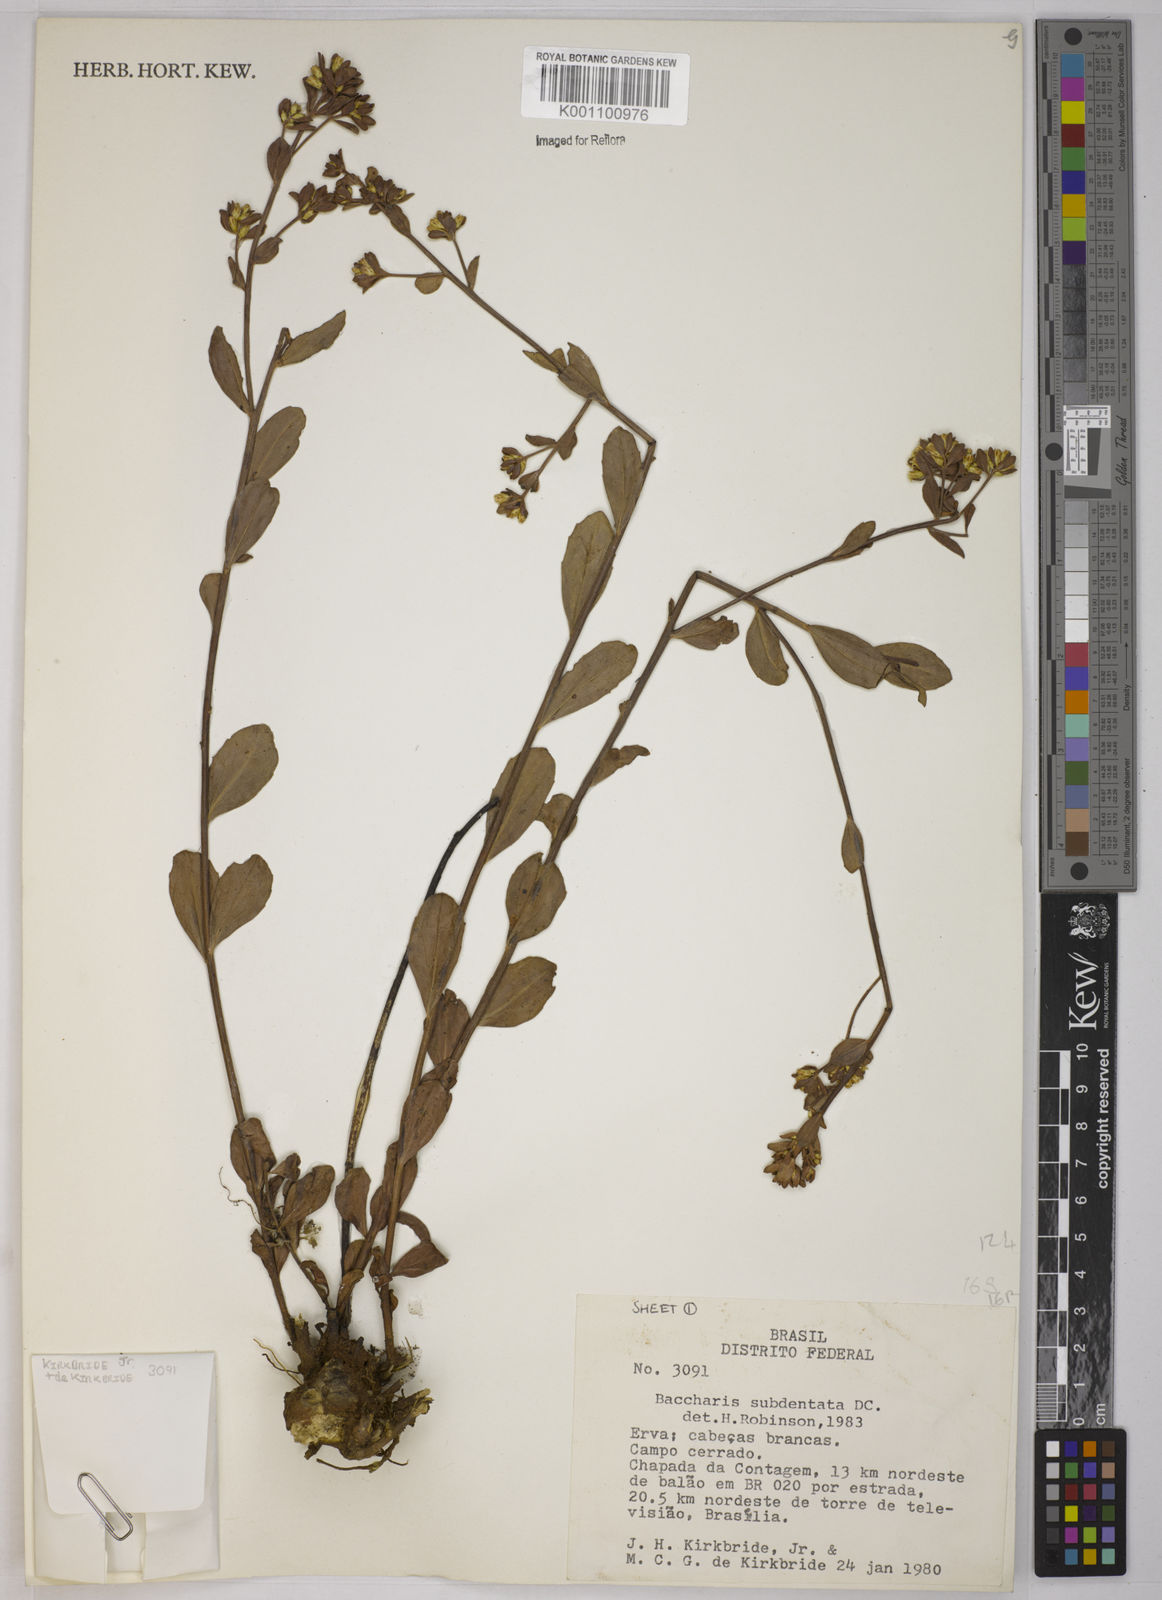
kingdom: Plantae
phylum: Tracheophyta
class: Magnoliopsida
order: Asterales
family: Asteraceae
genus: Baccharis
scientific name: Baccharis subdentata
